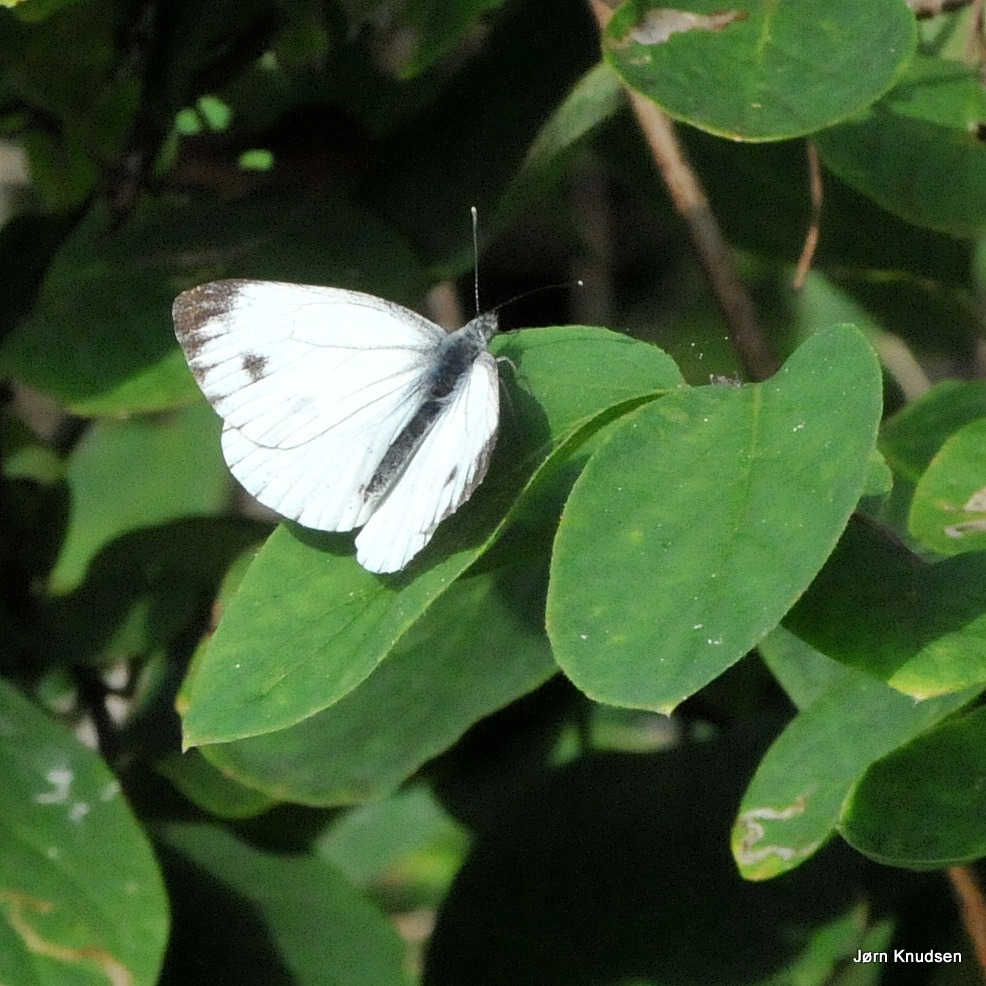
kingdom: Animalia
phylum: Arthropoda
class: Insecta
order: Lepidoptera
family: Pieridae
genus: Pieris
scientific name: Pieris napi
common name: Grønåret kålsommerfugl
